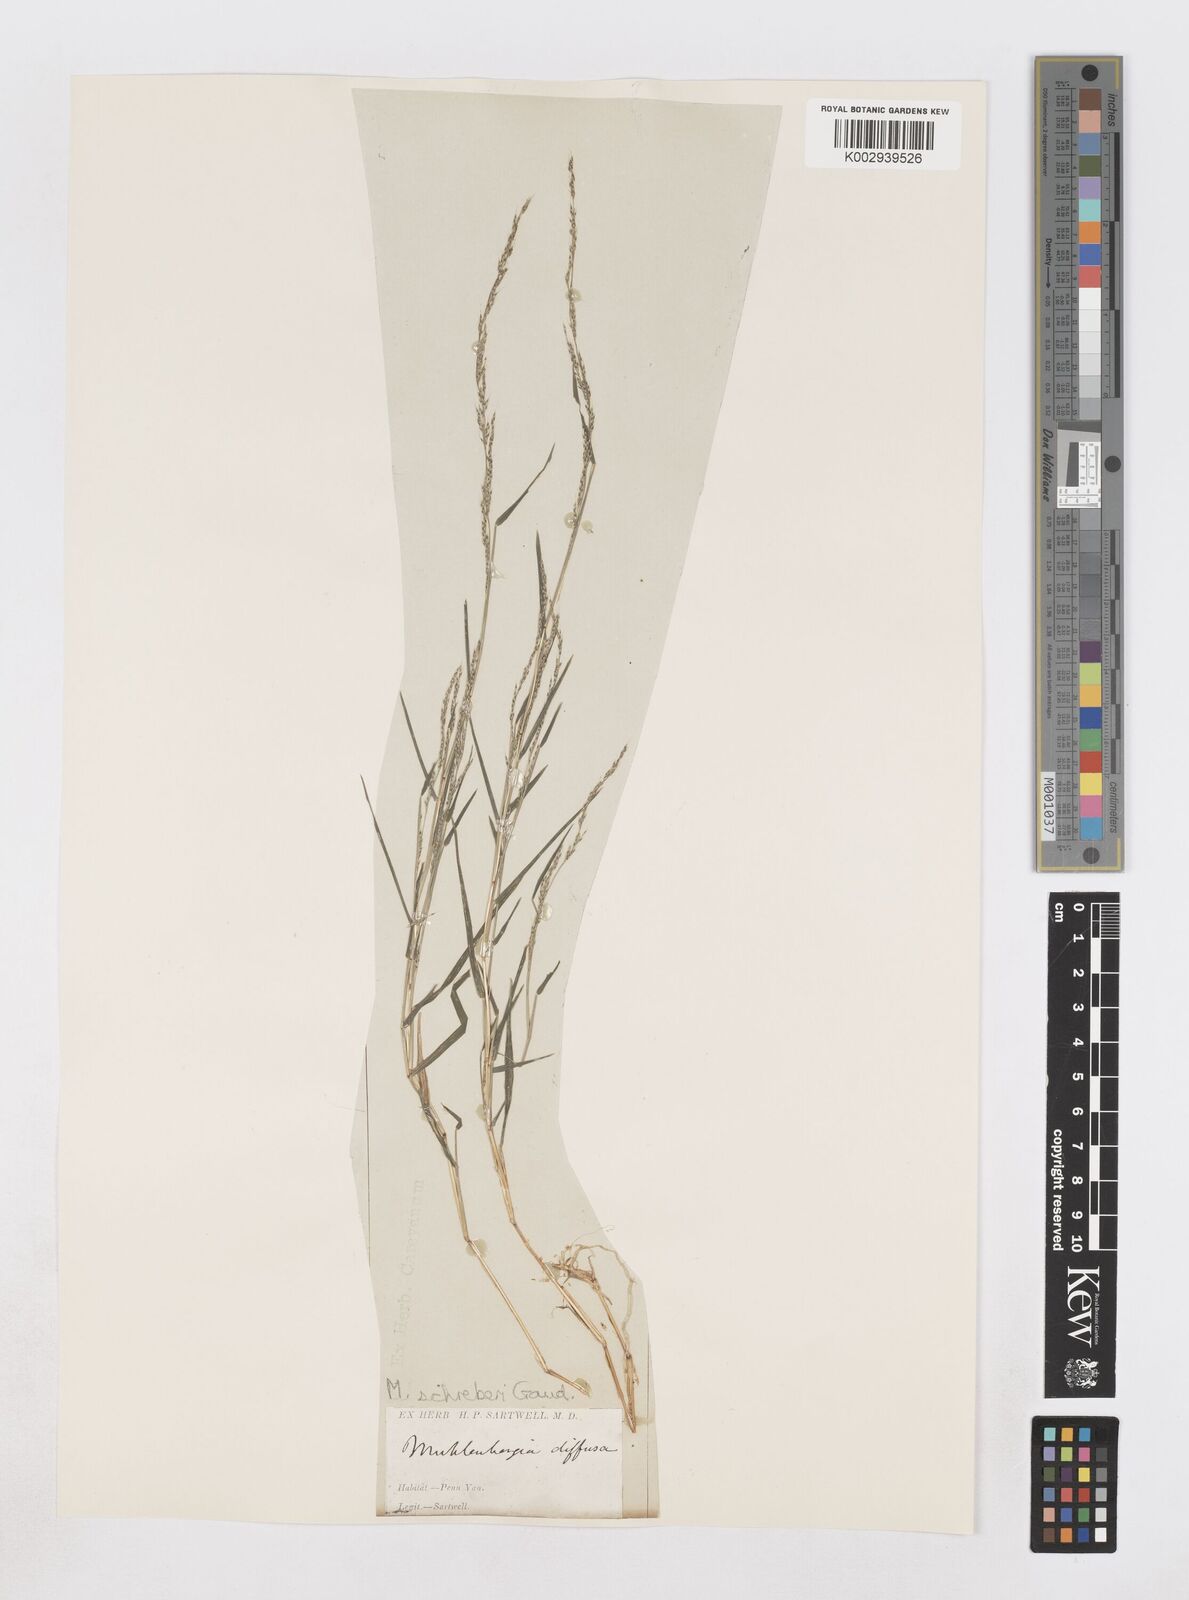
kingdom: Plantae
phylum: Tracheophyta
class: Liliopsida
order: Poales
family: Poaceae
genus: Muhlenbergia
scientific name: Muhlenbergia schreberi
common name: Nimblewill
